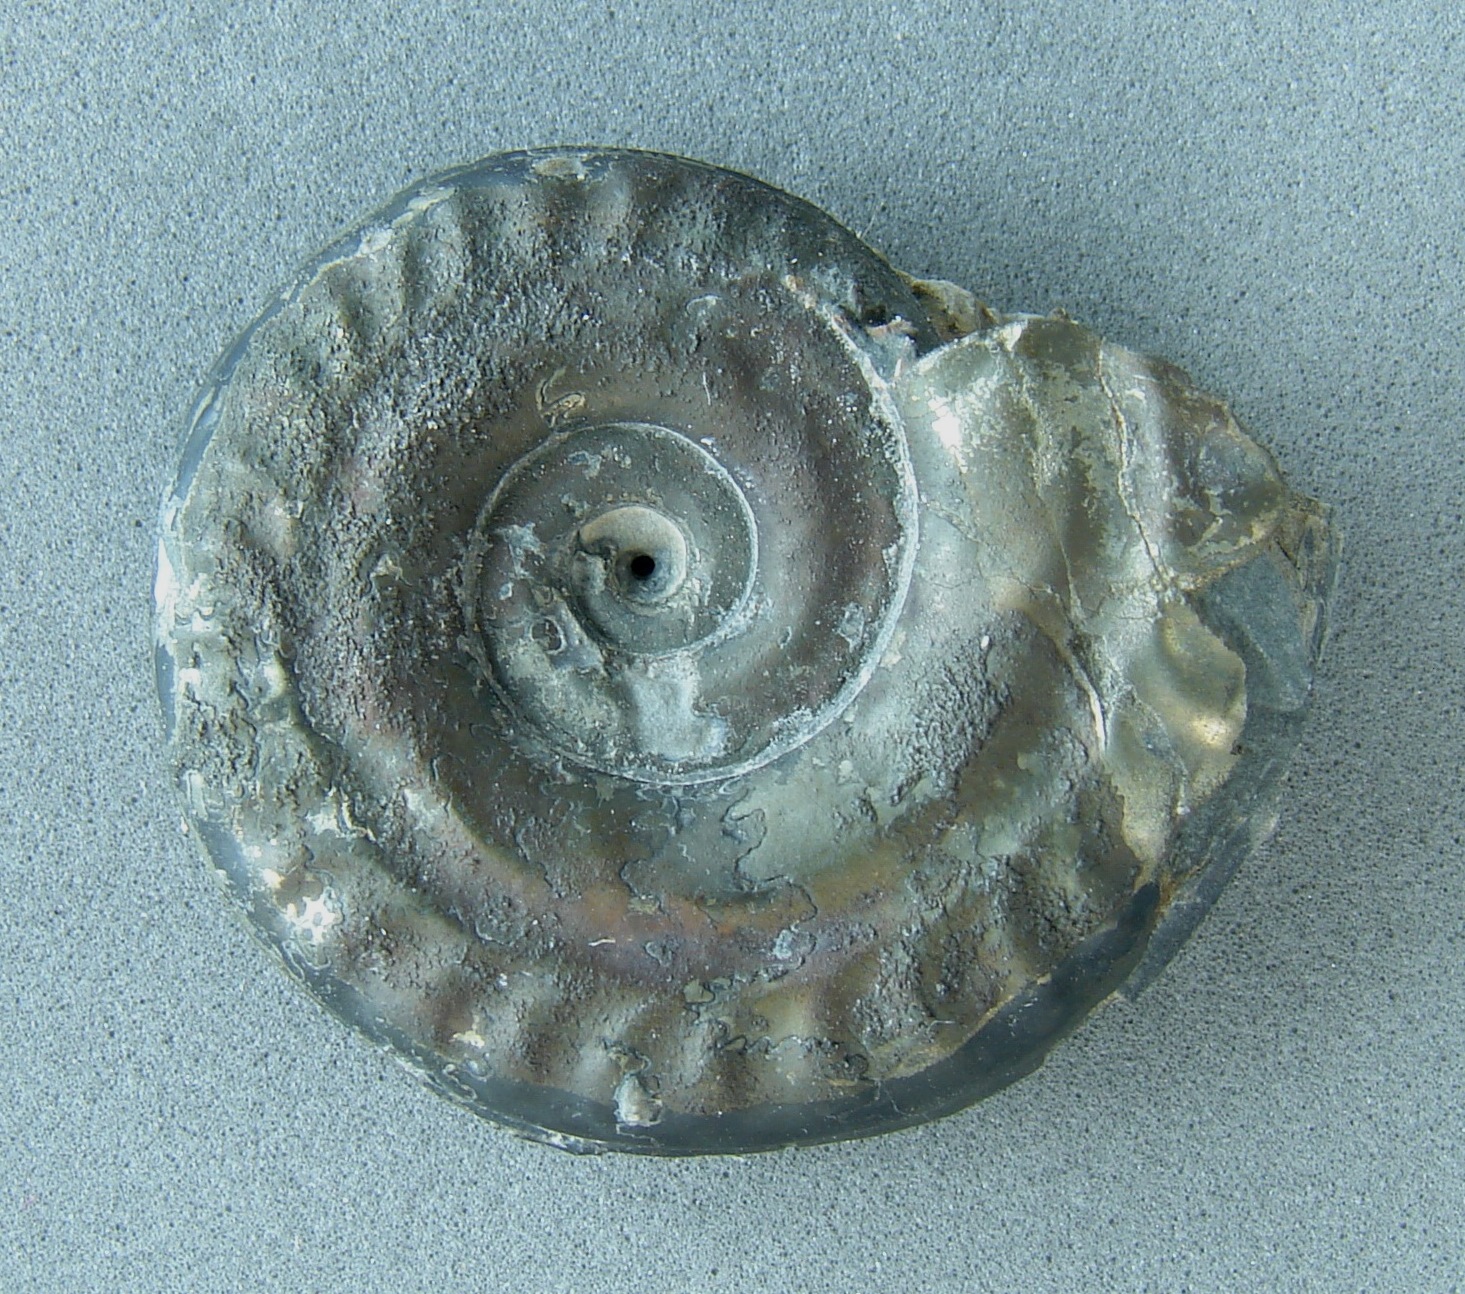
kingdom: Animalia
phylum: Mollusca
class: Cephalopoda
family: Hildoceratidae
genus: Hildoceras
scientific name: Hildoceras bifrons
